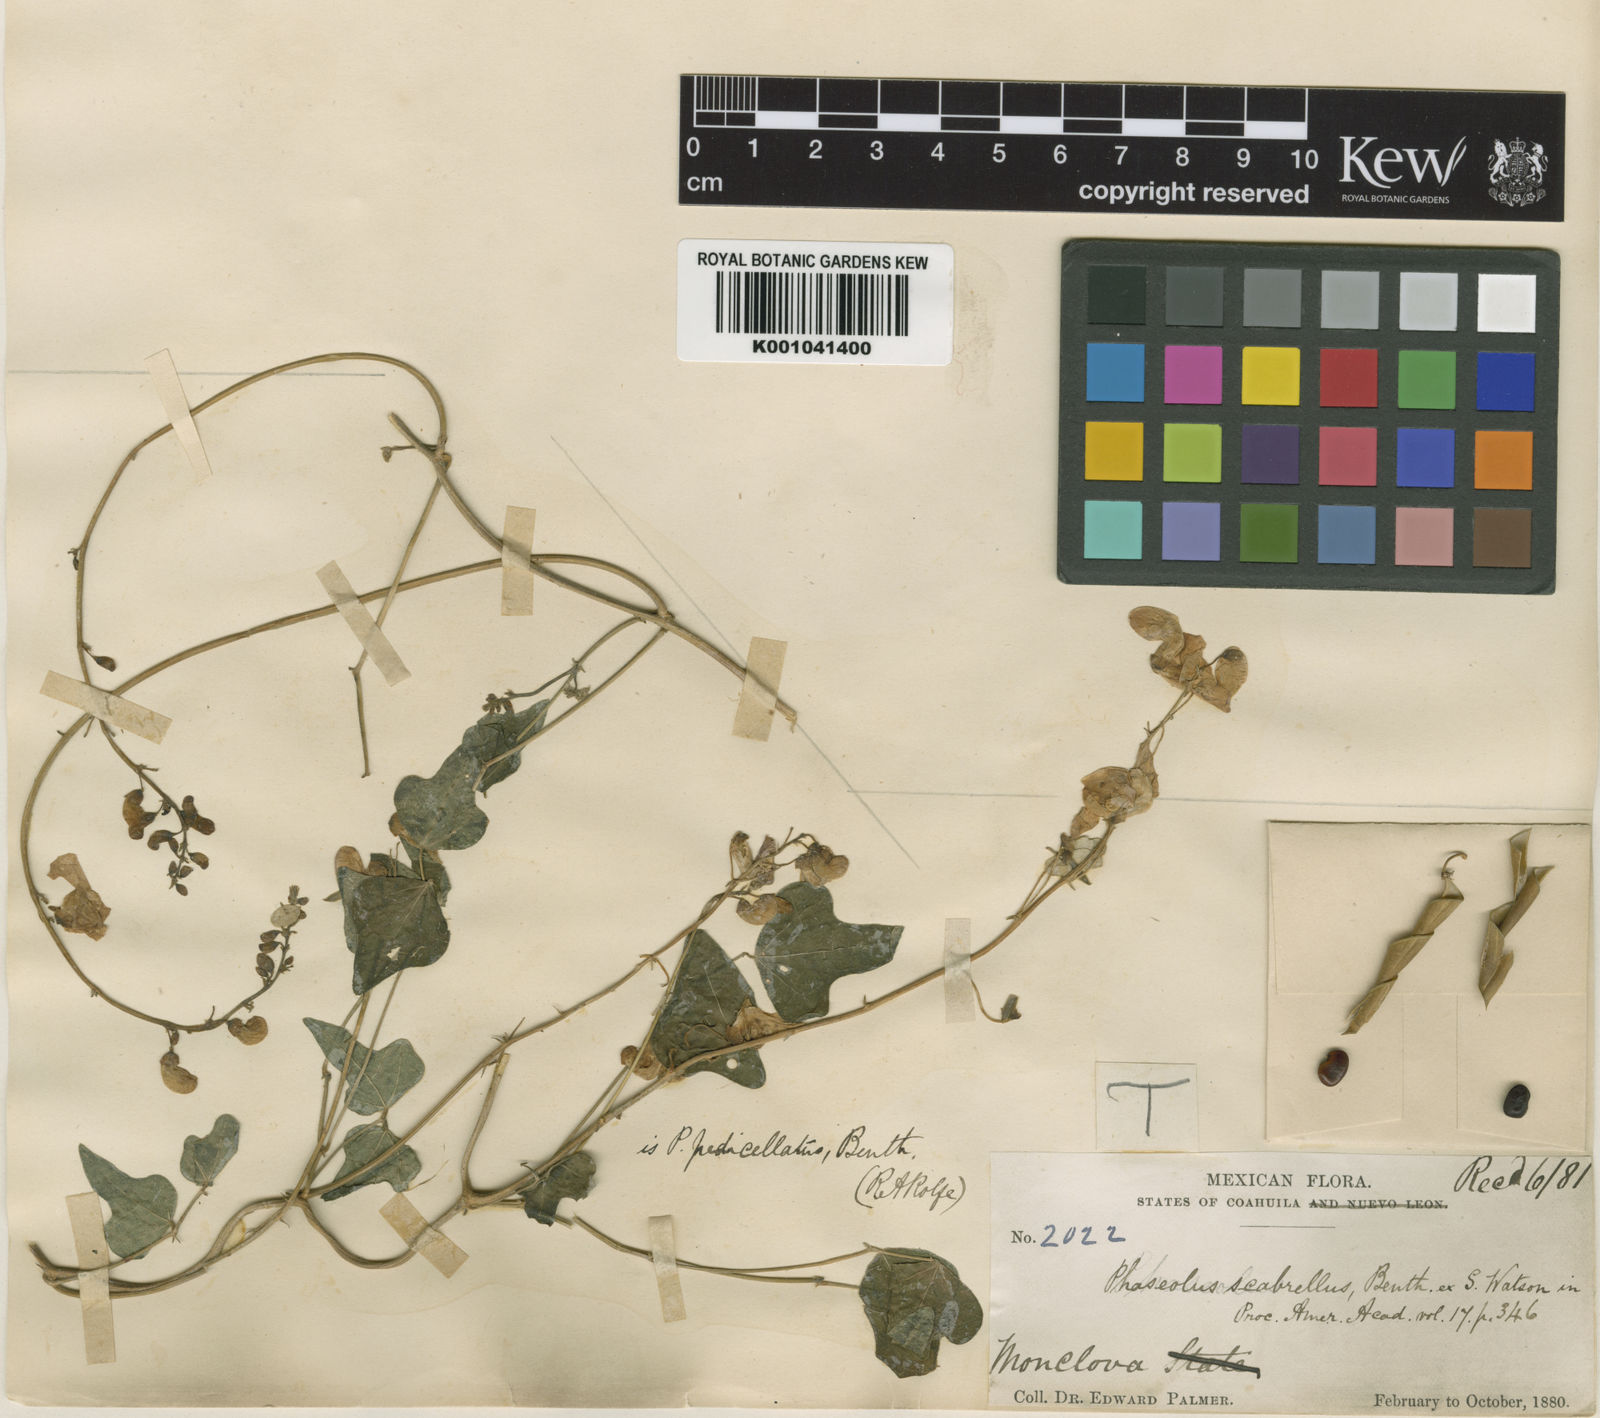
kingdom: Plantae
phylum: Tracheophyta
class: Magnoliopsida
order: Fabales
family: Fabaceae
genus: Phaseolus
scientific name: Phaseolus pedicellatus
